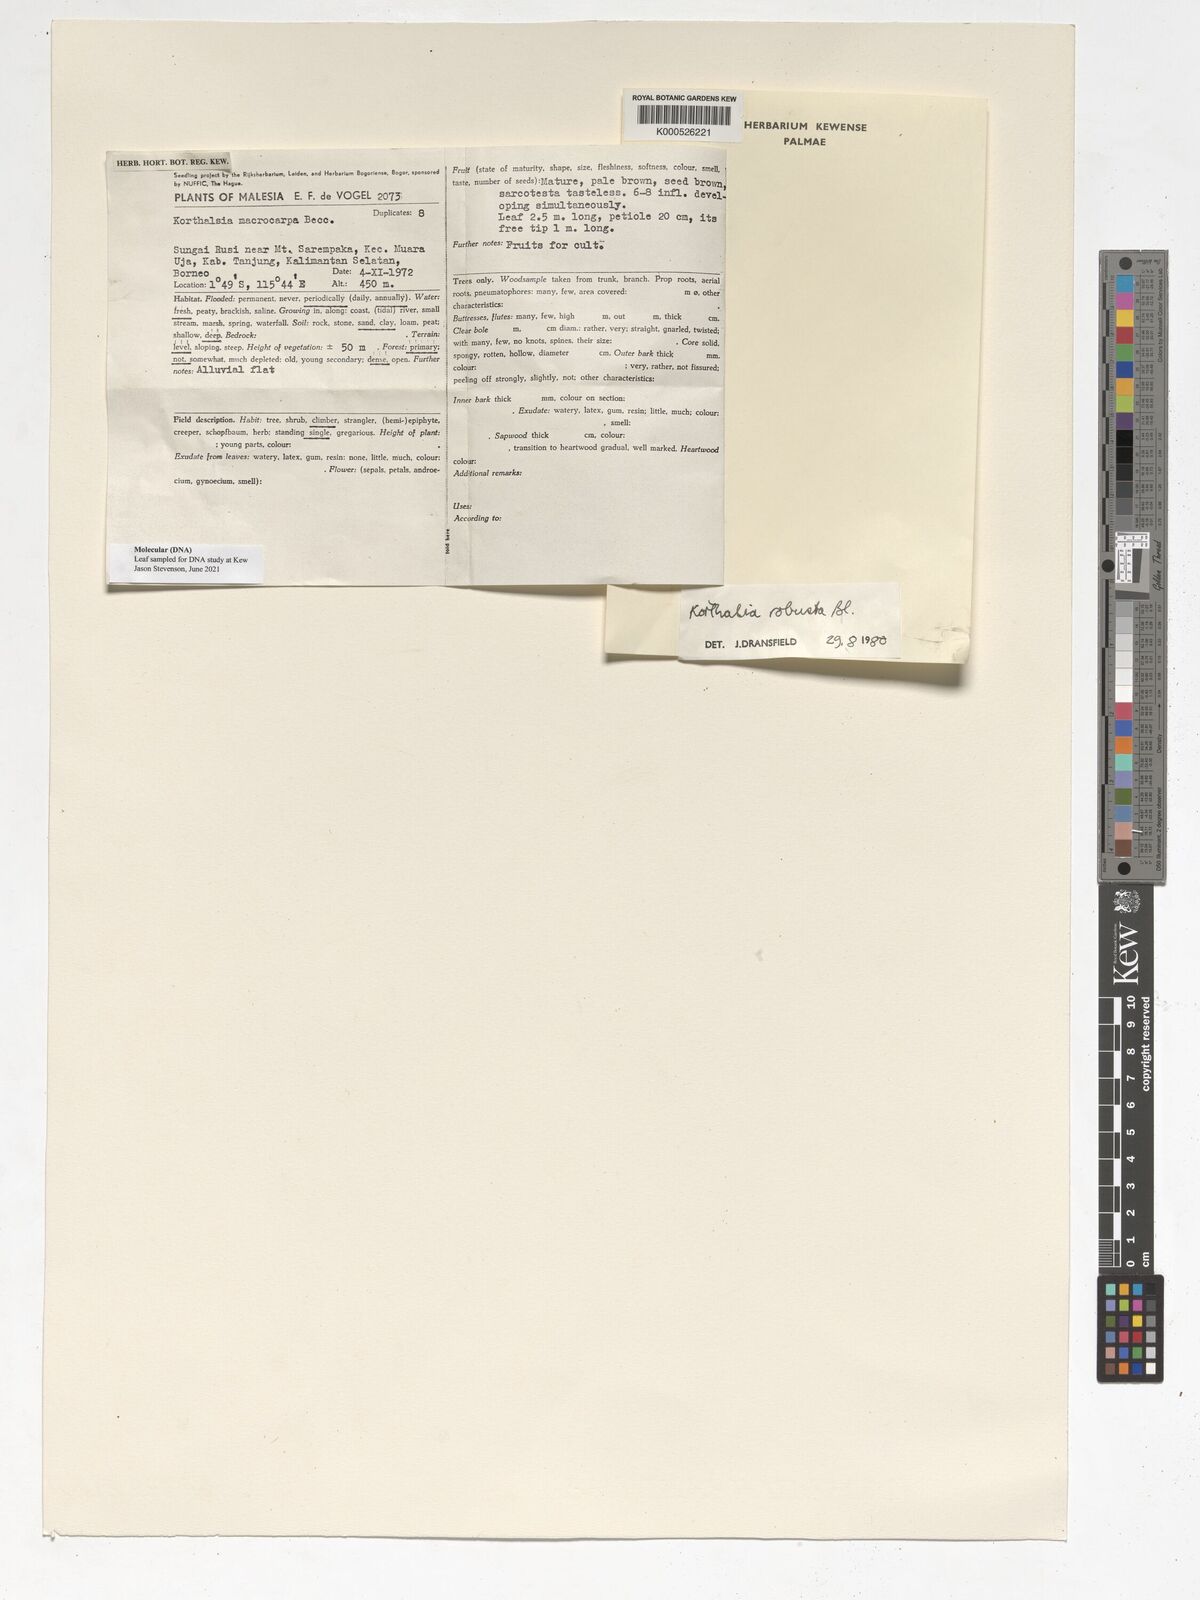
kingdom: Plantae
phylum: Tracheophyta
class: Liliopsida
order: Arecales
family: Arecaceae
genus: Korthalsia
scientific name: Korthalsia robusta
